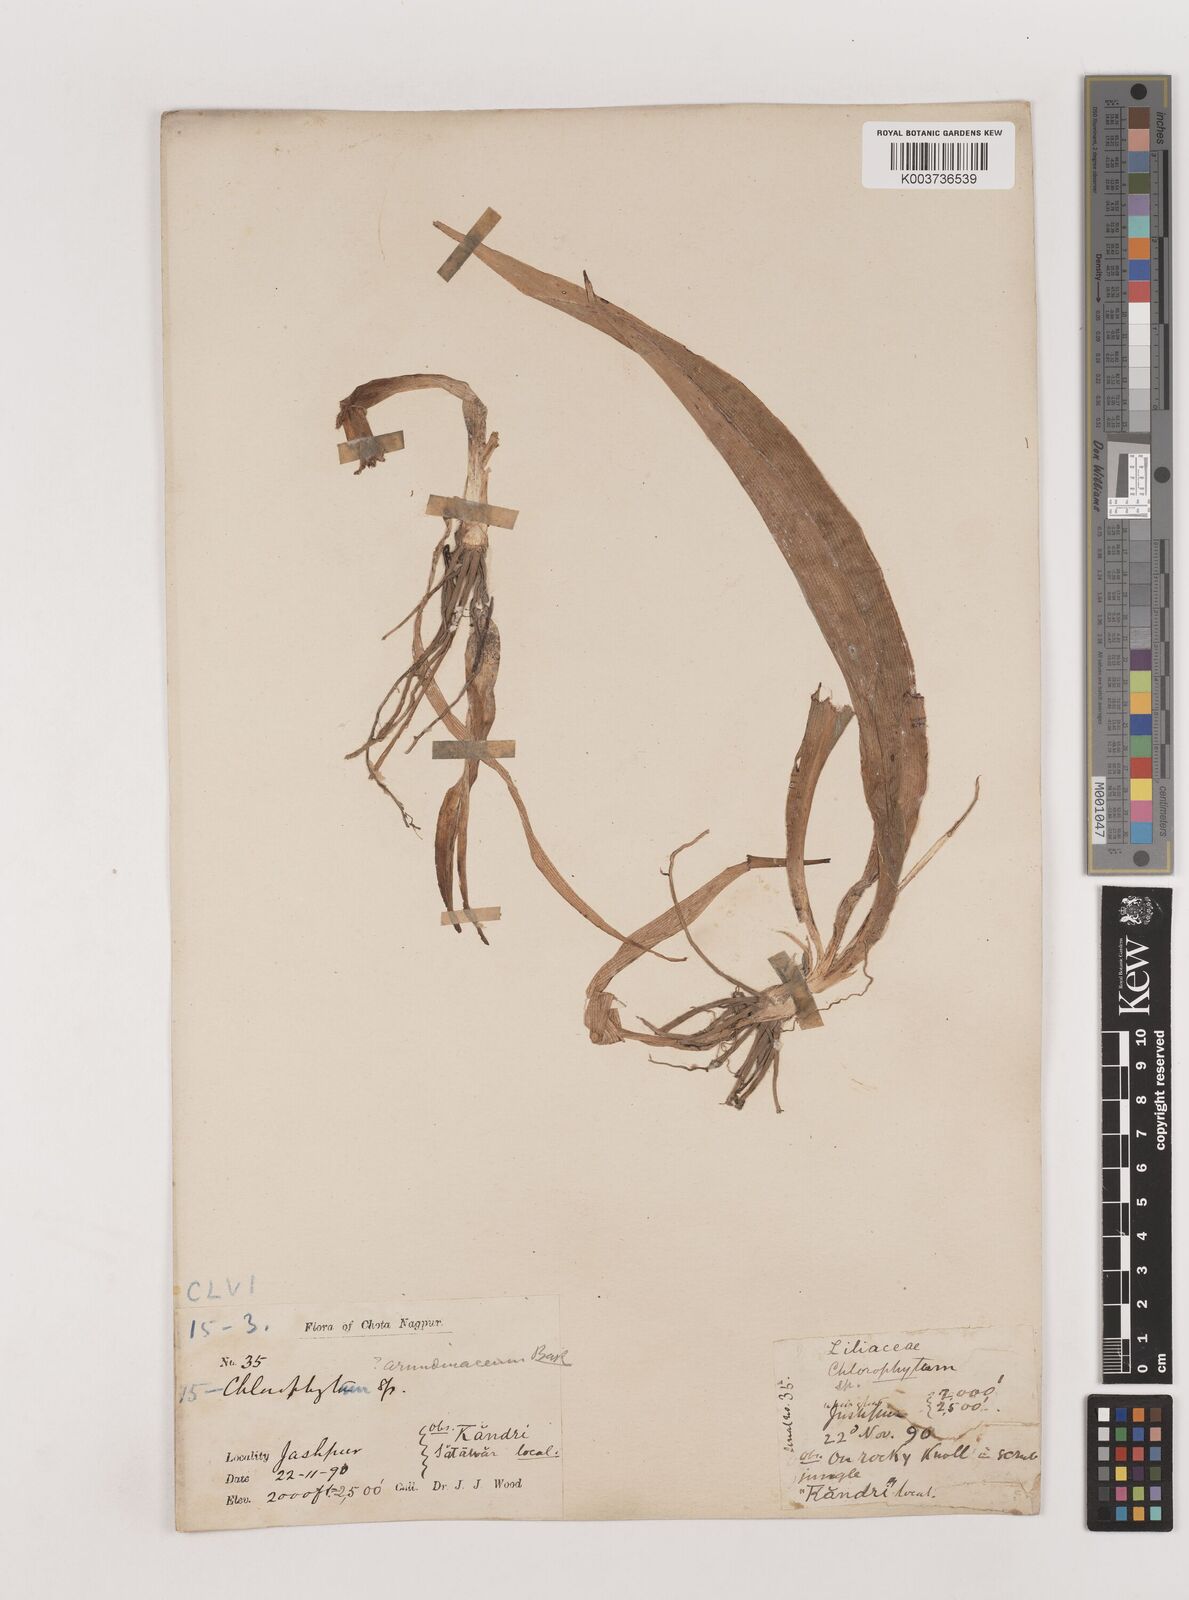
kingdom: Plantae
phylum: Tracheophyta
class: Liliopsida
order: Asparagales
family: Asparagaceae
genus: Chlorophytum
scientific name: Chlorophytum arundinaceum
